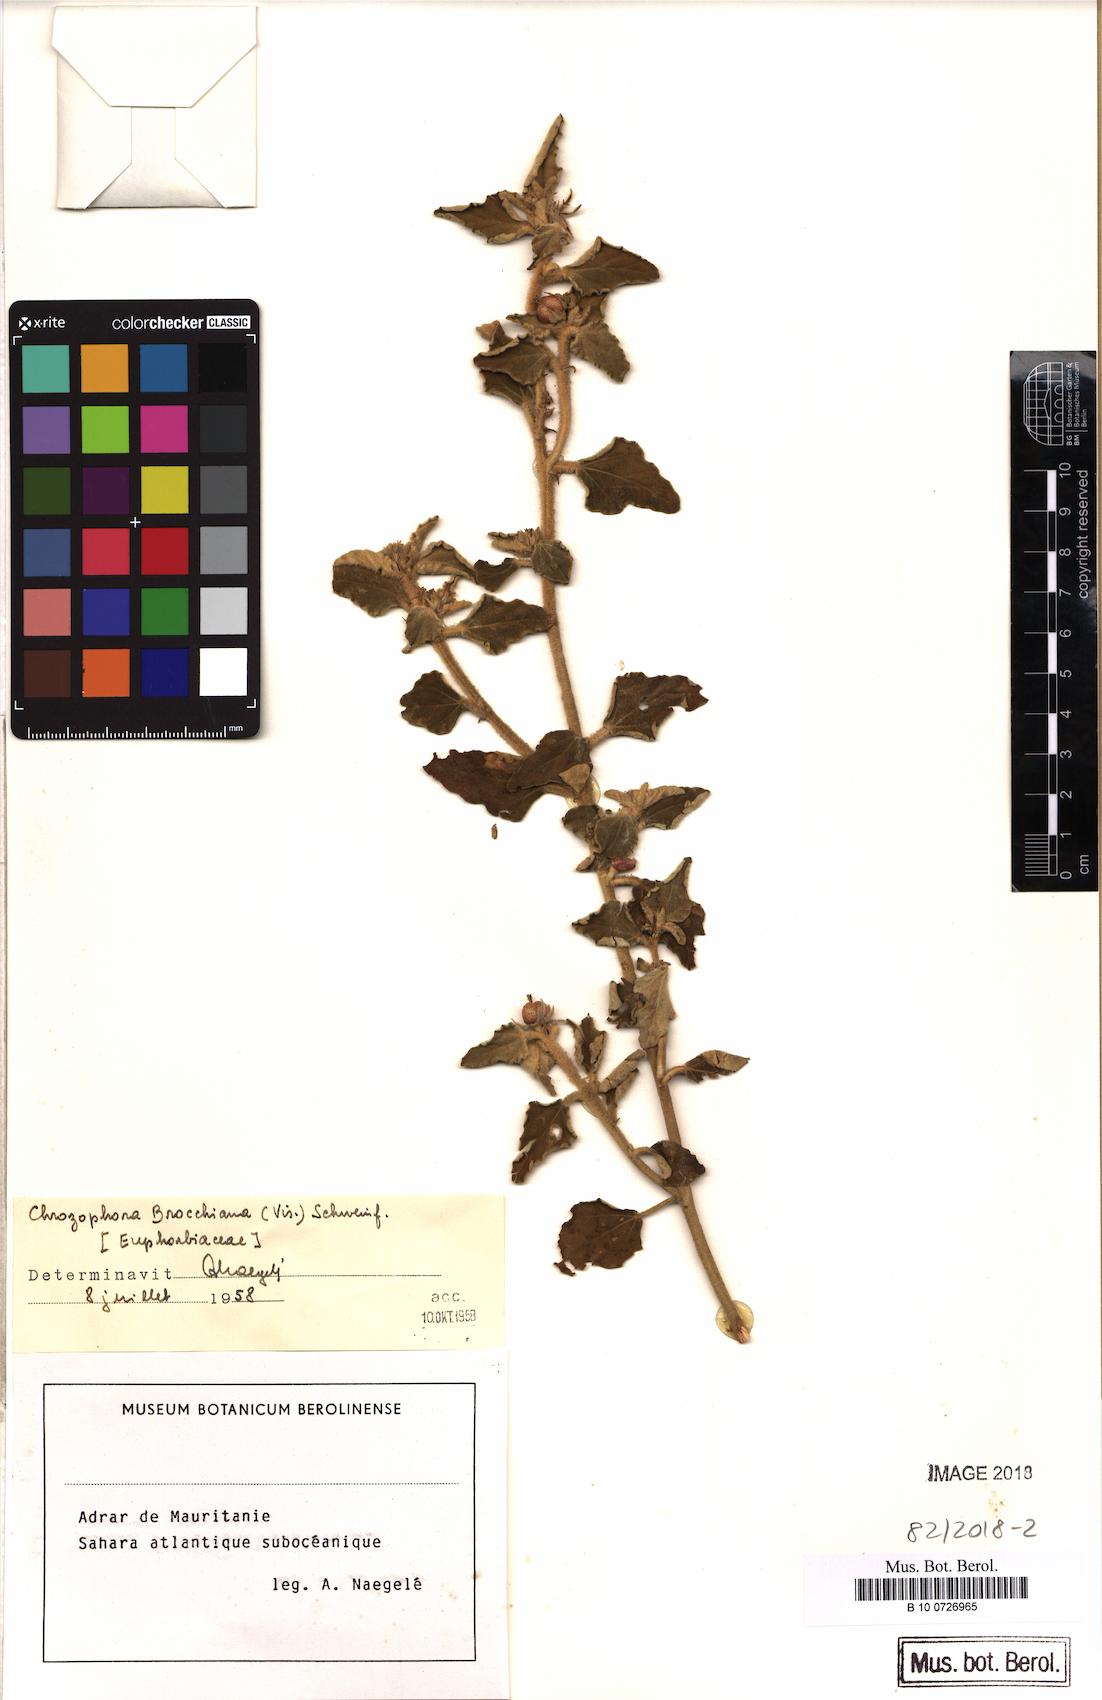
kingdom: Plantae
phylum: Tracheophyta
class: Magnoliopsida
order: Malpighiales
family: Euphorbiaceae
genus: Chrozophora
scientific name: Chrozophora brocchiana
